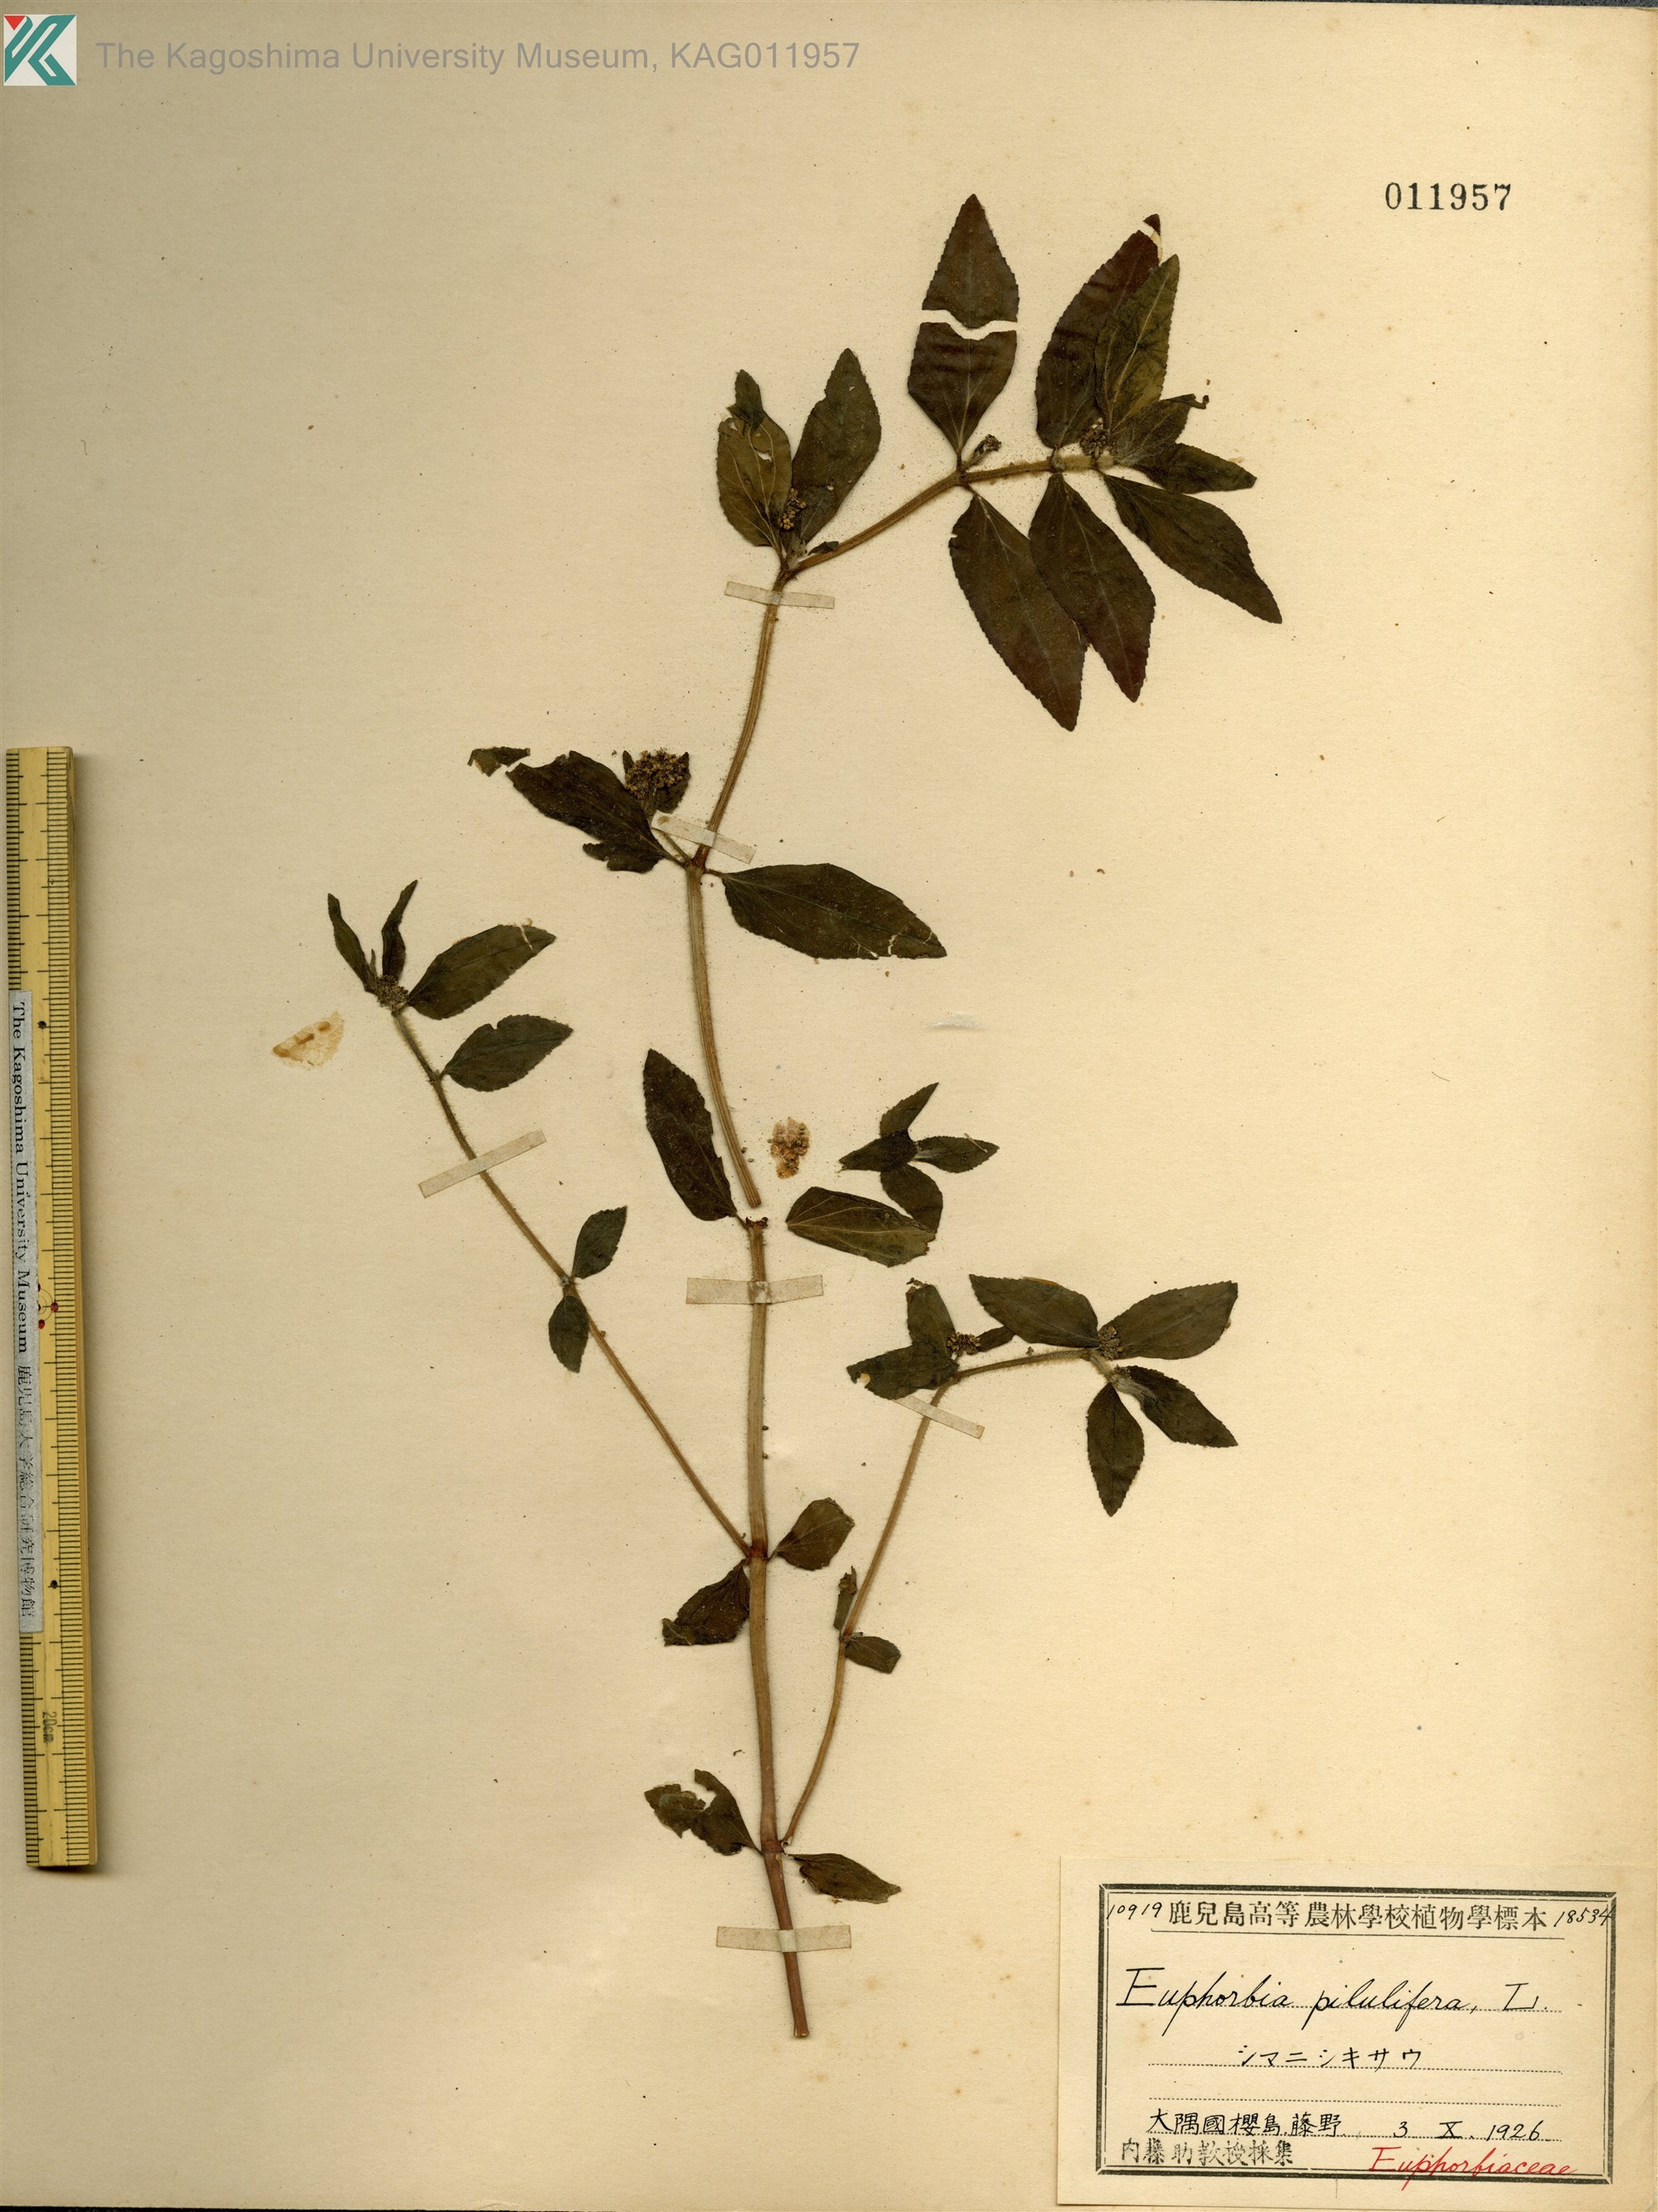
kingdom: Plantae
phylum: Tracheophyta
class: Magnoliopsida
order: Malpighiales
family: Euphorbiaceae
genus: Euphorbia
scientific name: Euphorbia hirta
